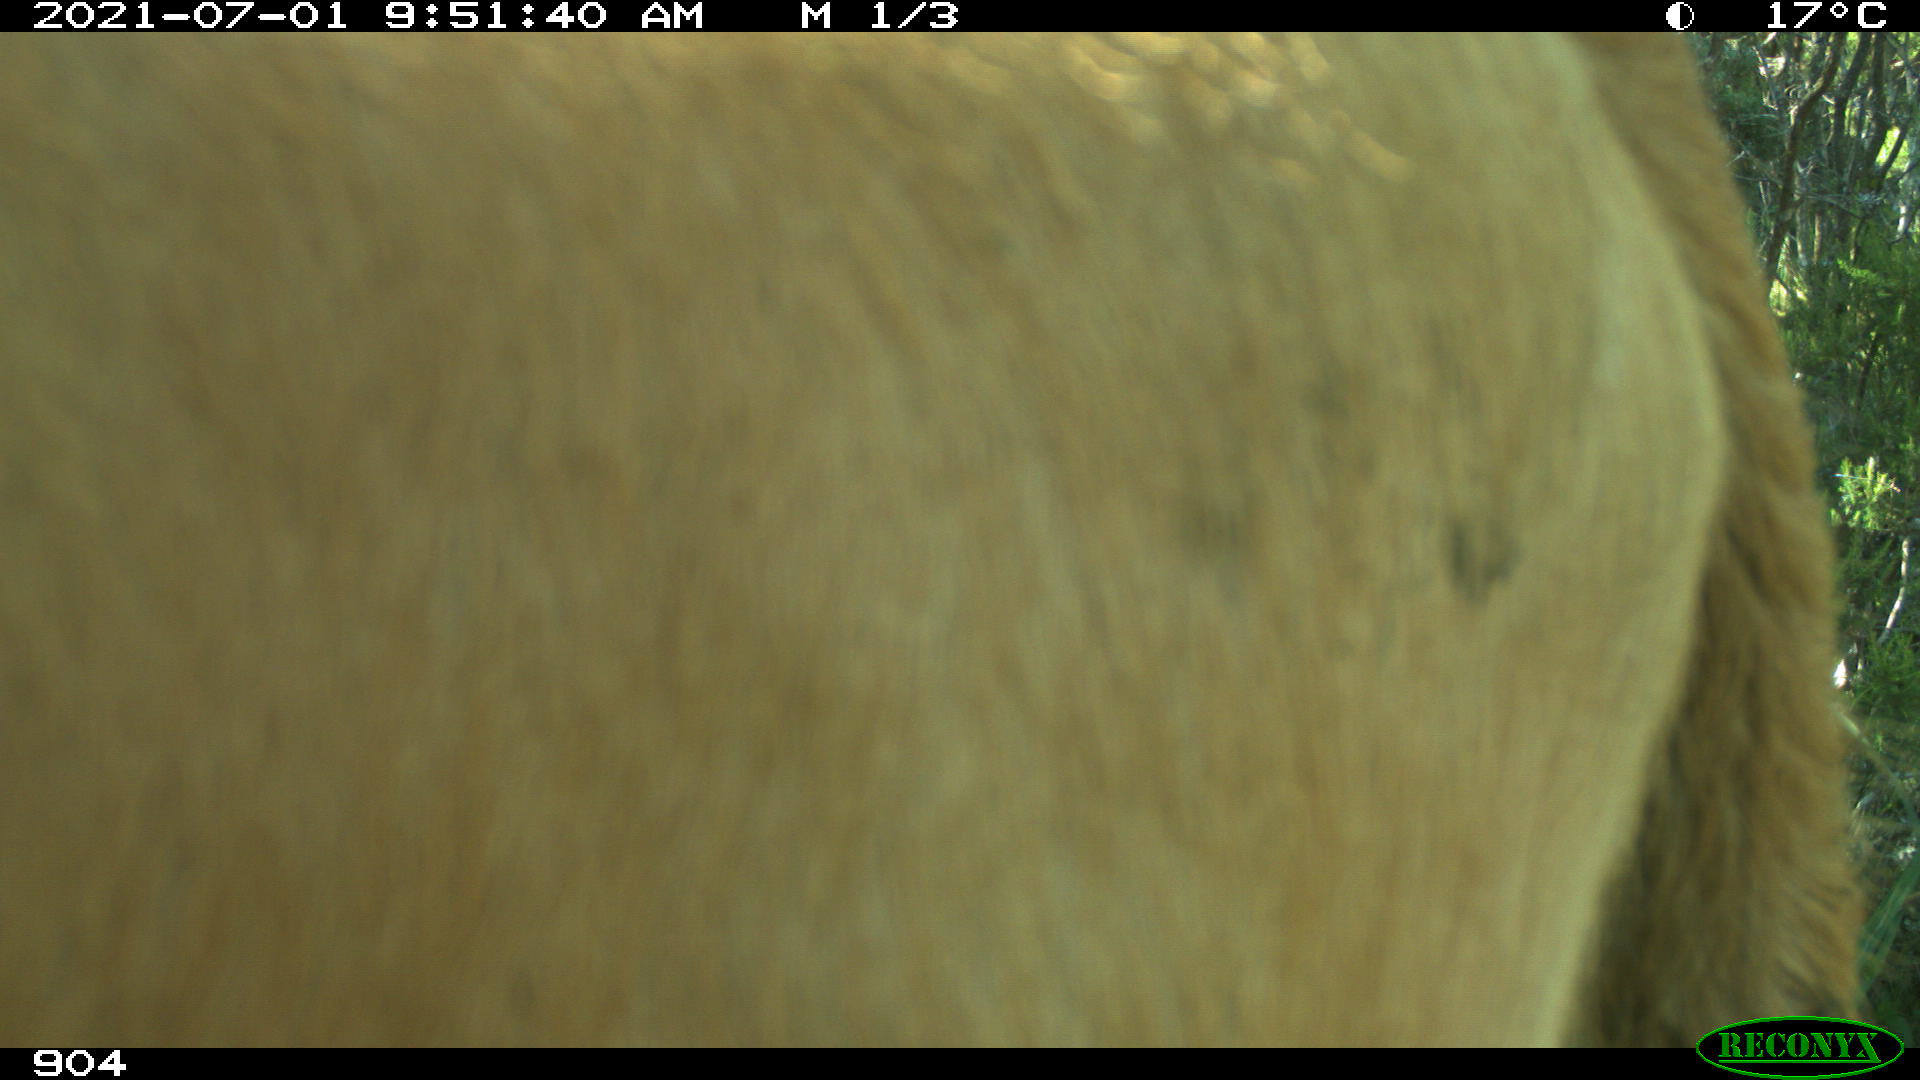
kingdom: Animalia
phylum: Chordata
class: Mammalia
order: Artiodactyla
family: Bovidae
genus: Bos
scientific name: Bos taurus
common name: Domesticated cattle
